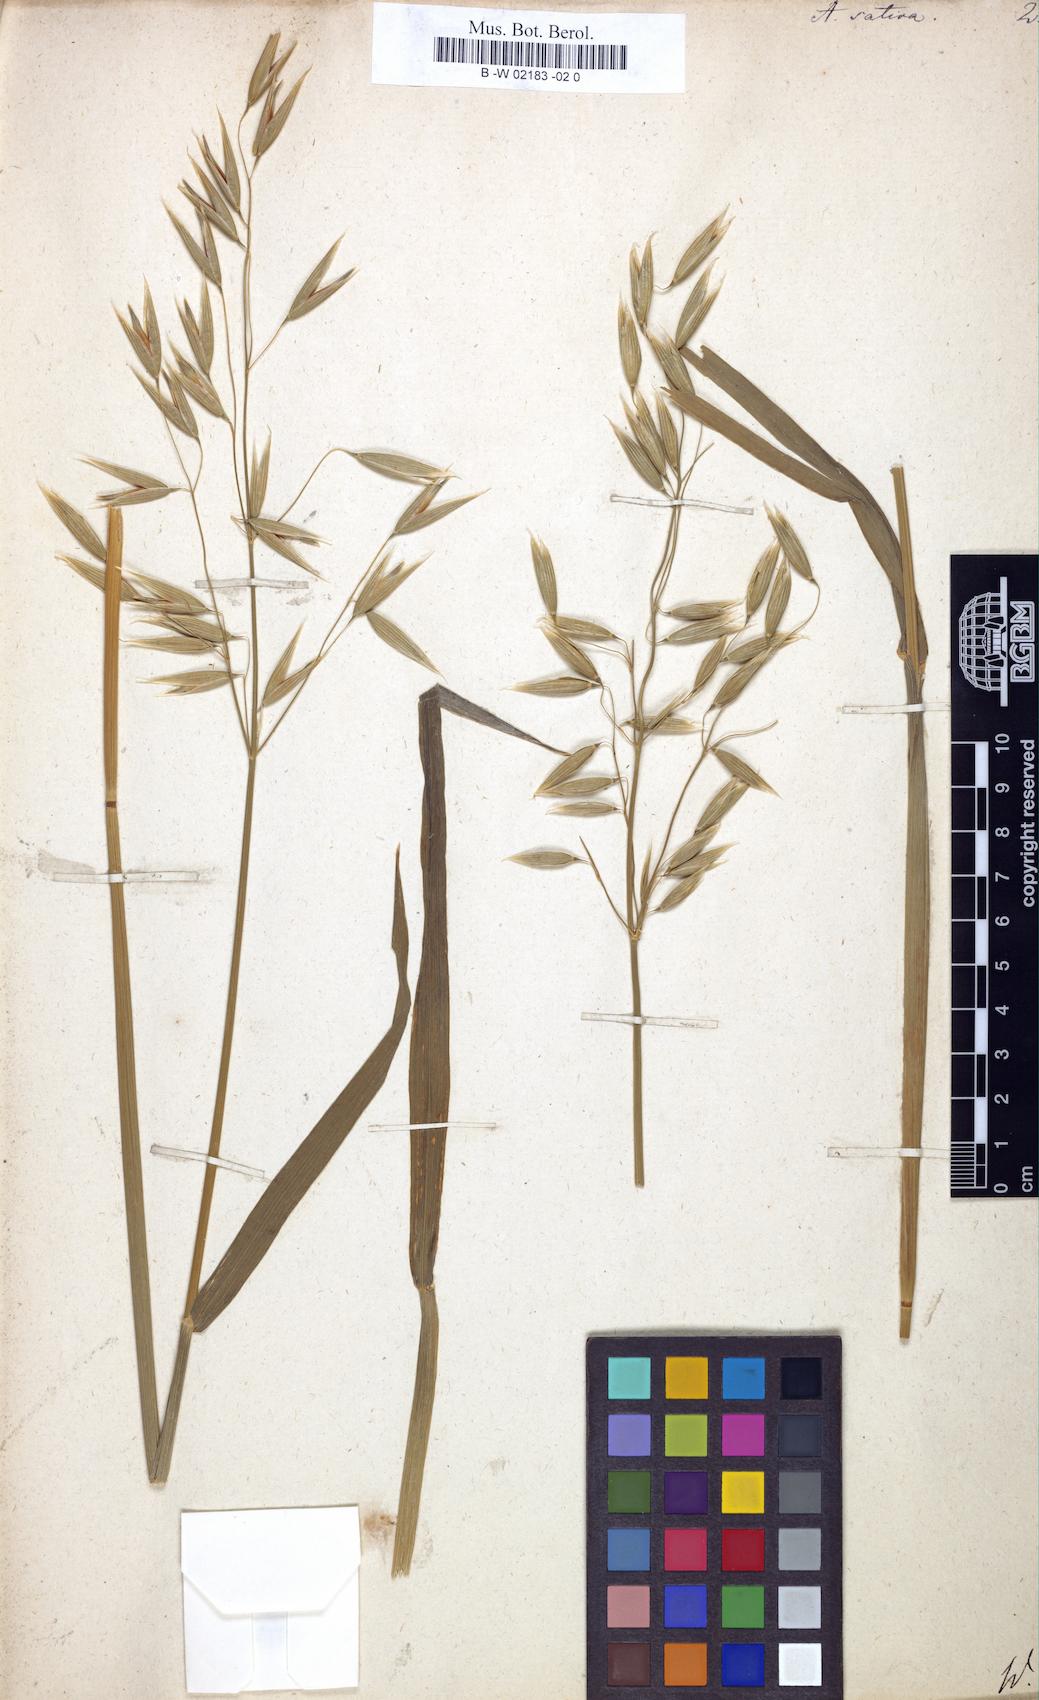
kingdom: Plantae
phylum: Tracheophyta
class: Liliopsida
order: Poales
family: Poaceae
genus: Avena
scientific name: Avena sativa
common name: Oat
